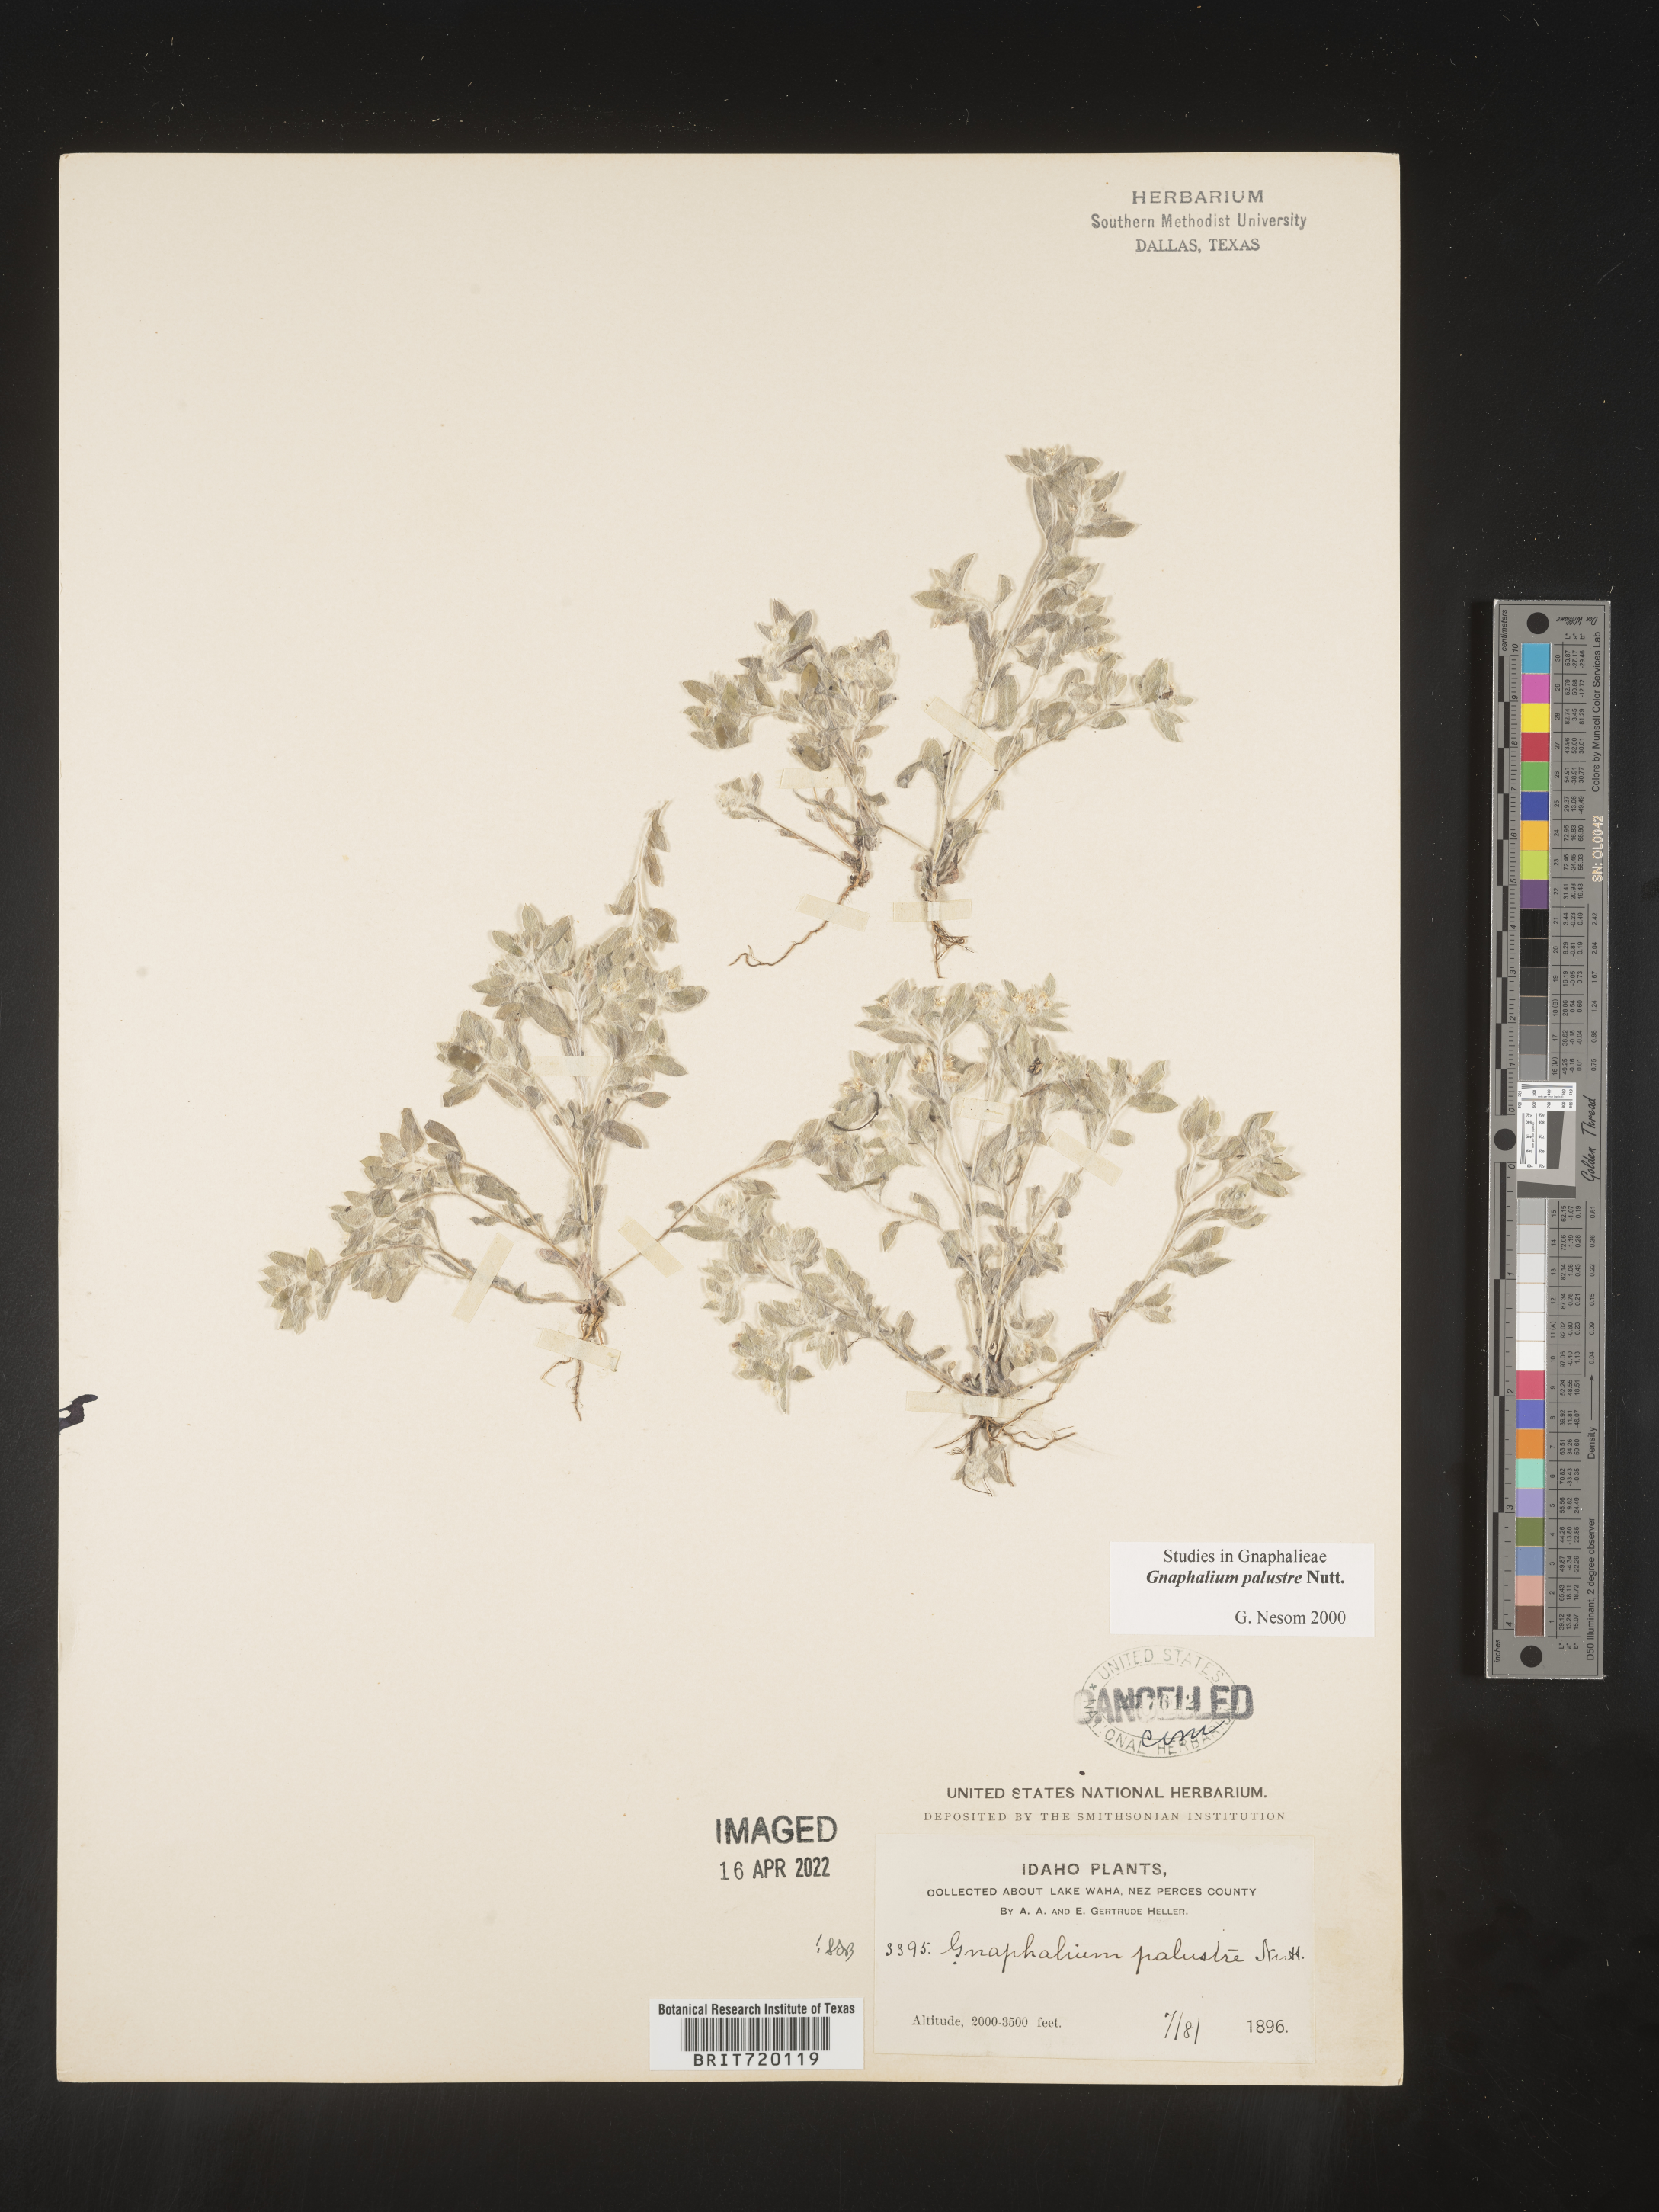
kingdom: Plantae
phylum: Tracheophyta
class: Magnoliopsida
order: Asterales
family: Asteraceae
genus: Gnaphalium
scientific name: Gnaphalium palustre
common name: Western marsh cudweed
